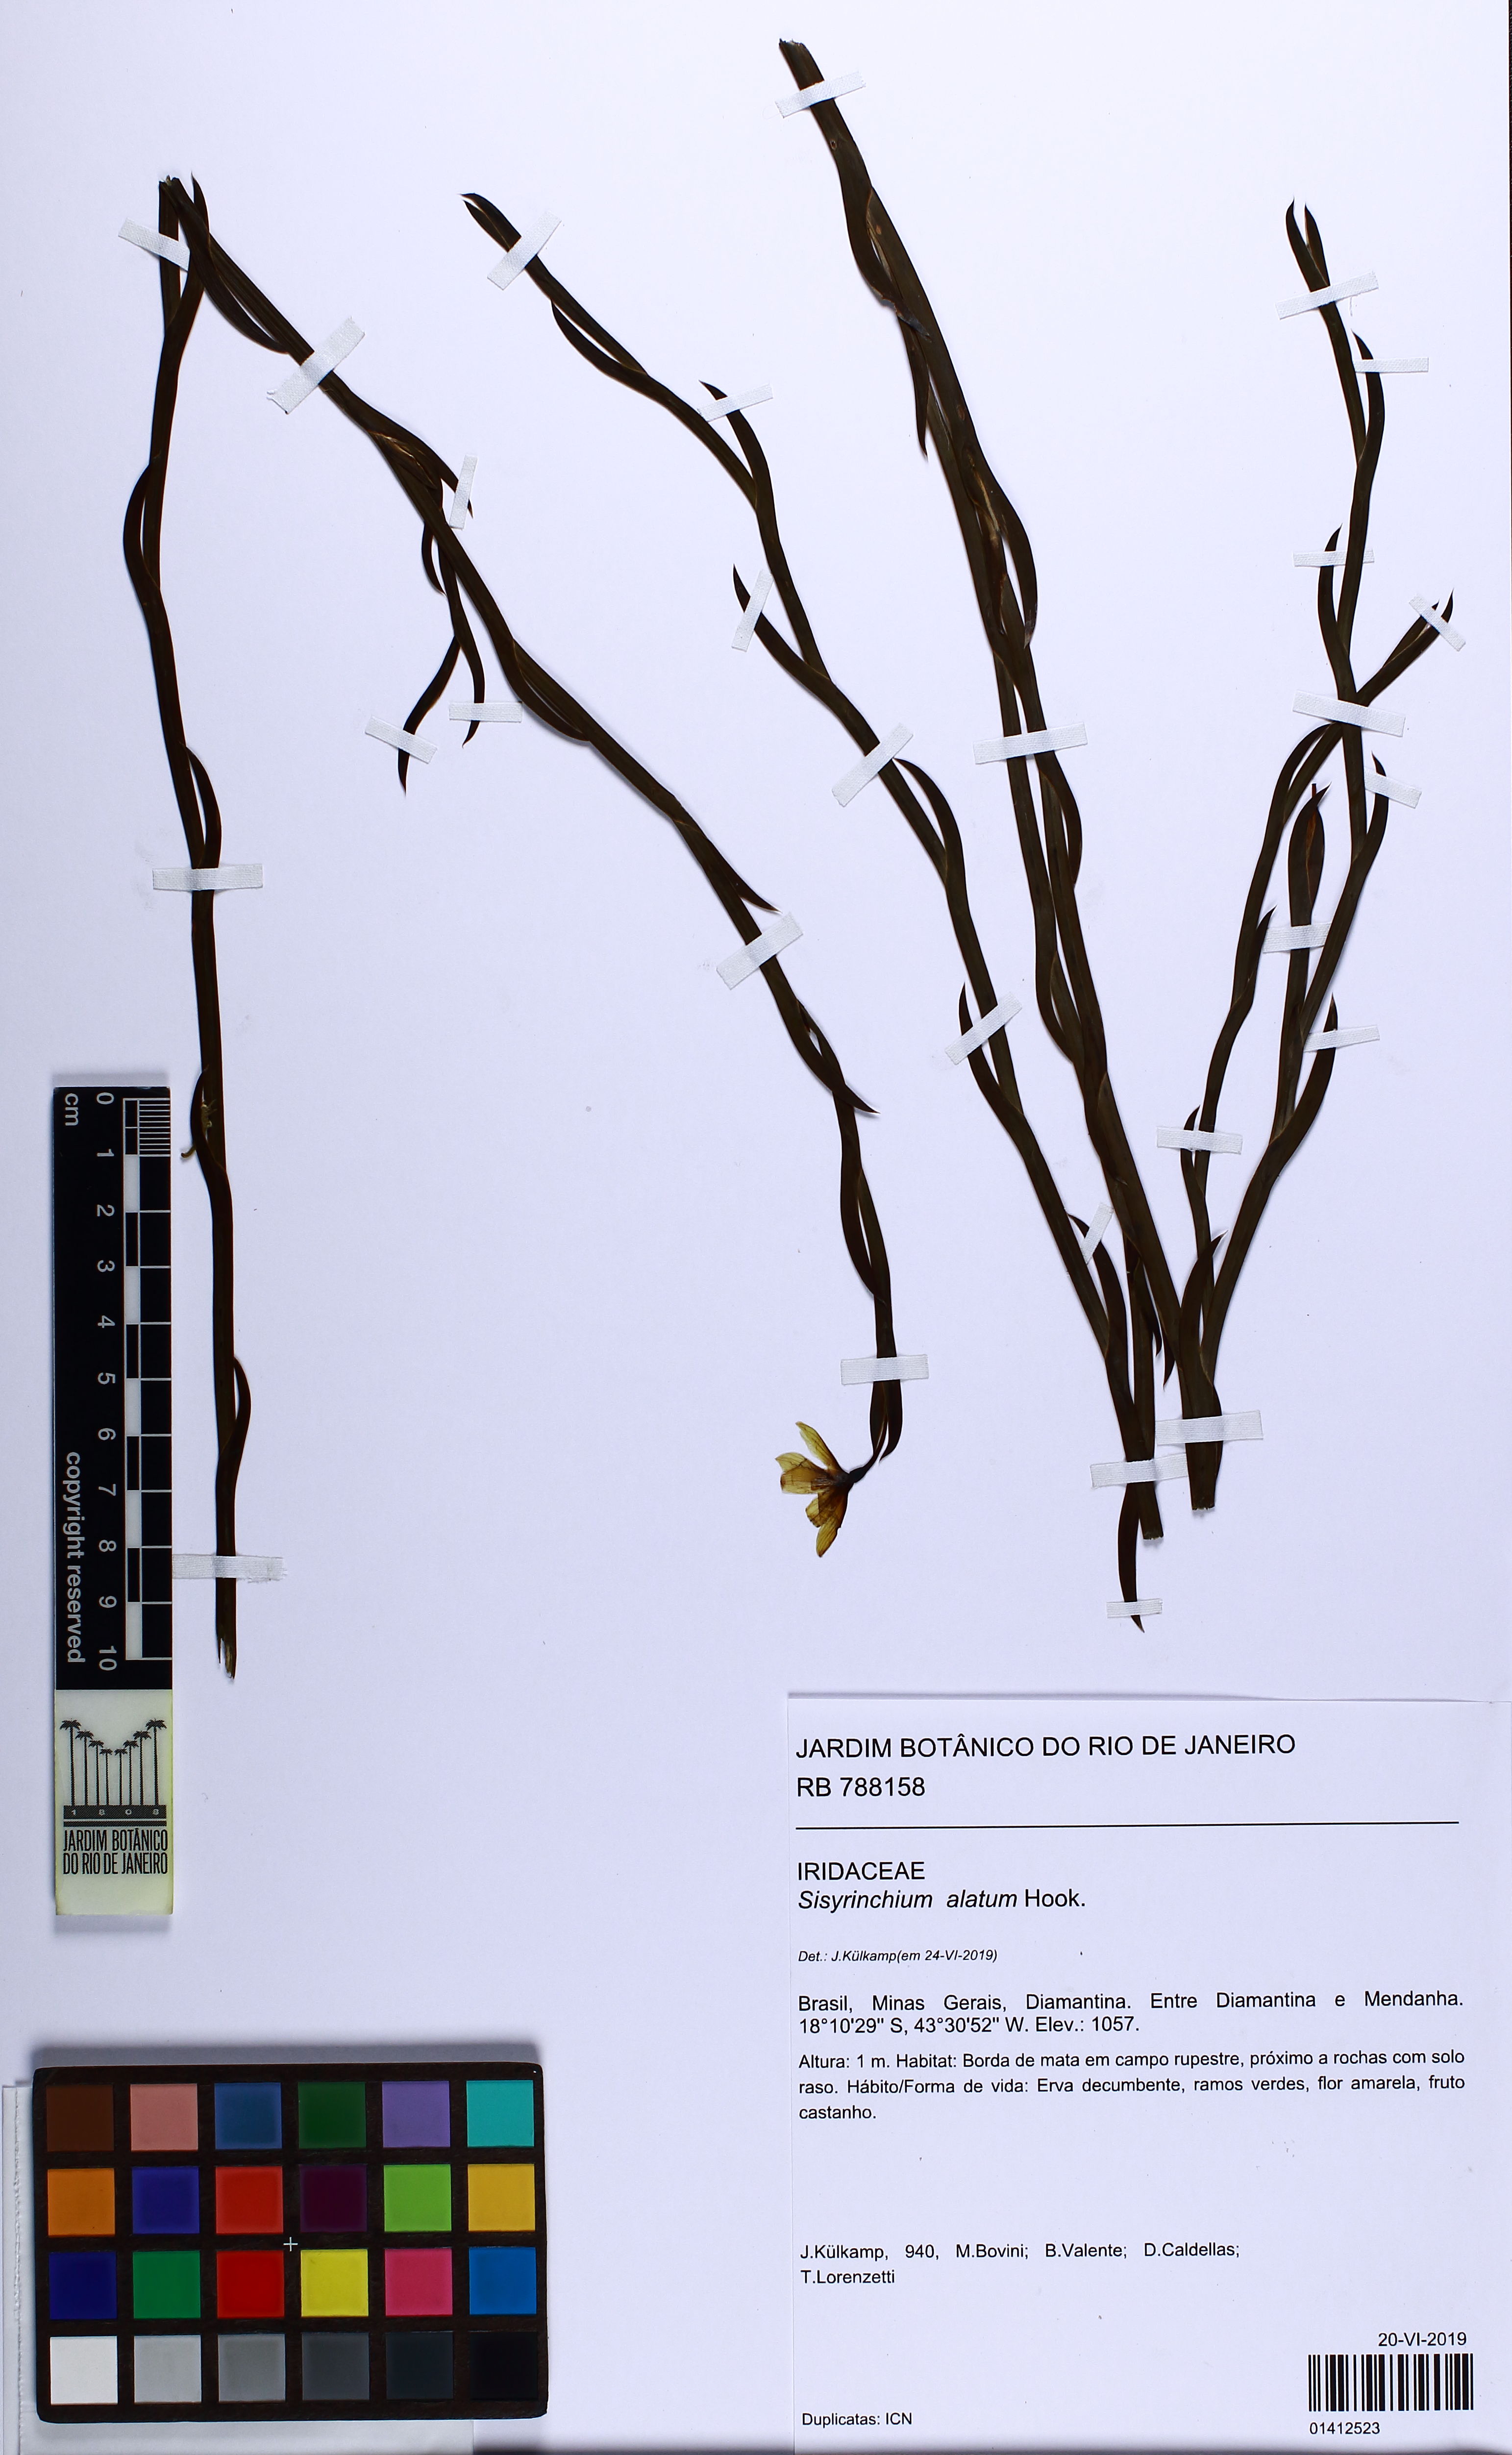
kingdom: Plantae
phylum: Tracheophyta
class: Liliopsida
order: Asparagales
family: Iridaceae
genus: Sisyrinchium
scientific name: Sisyrinchium vaginatum
